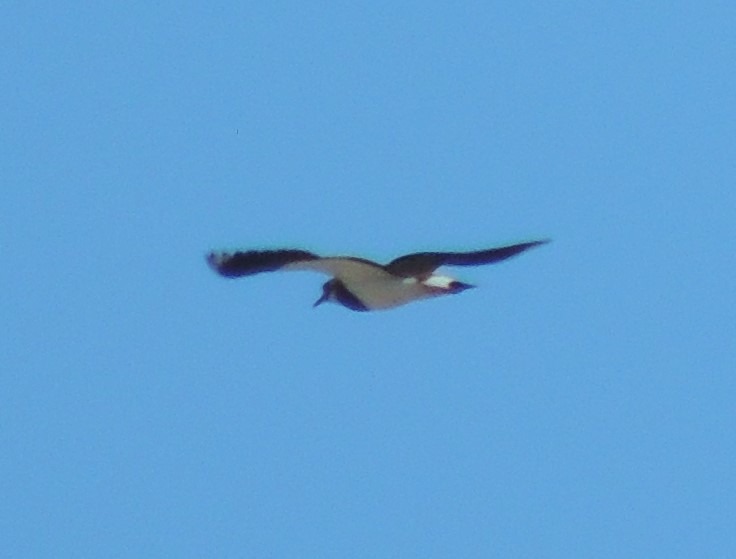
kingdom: Animalia
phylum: Chordata
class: Aves
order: Charadriiformes
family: Charadriidae
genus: Vanellus
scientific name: Vanellus vanellus
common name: Vibe
